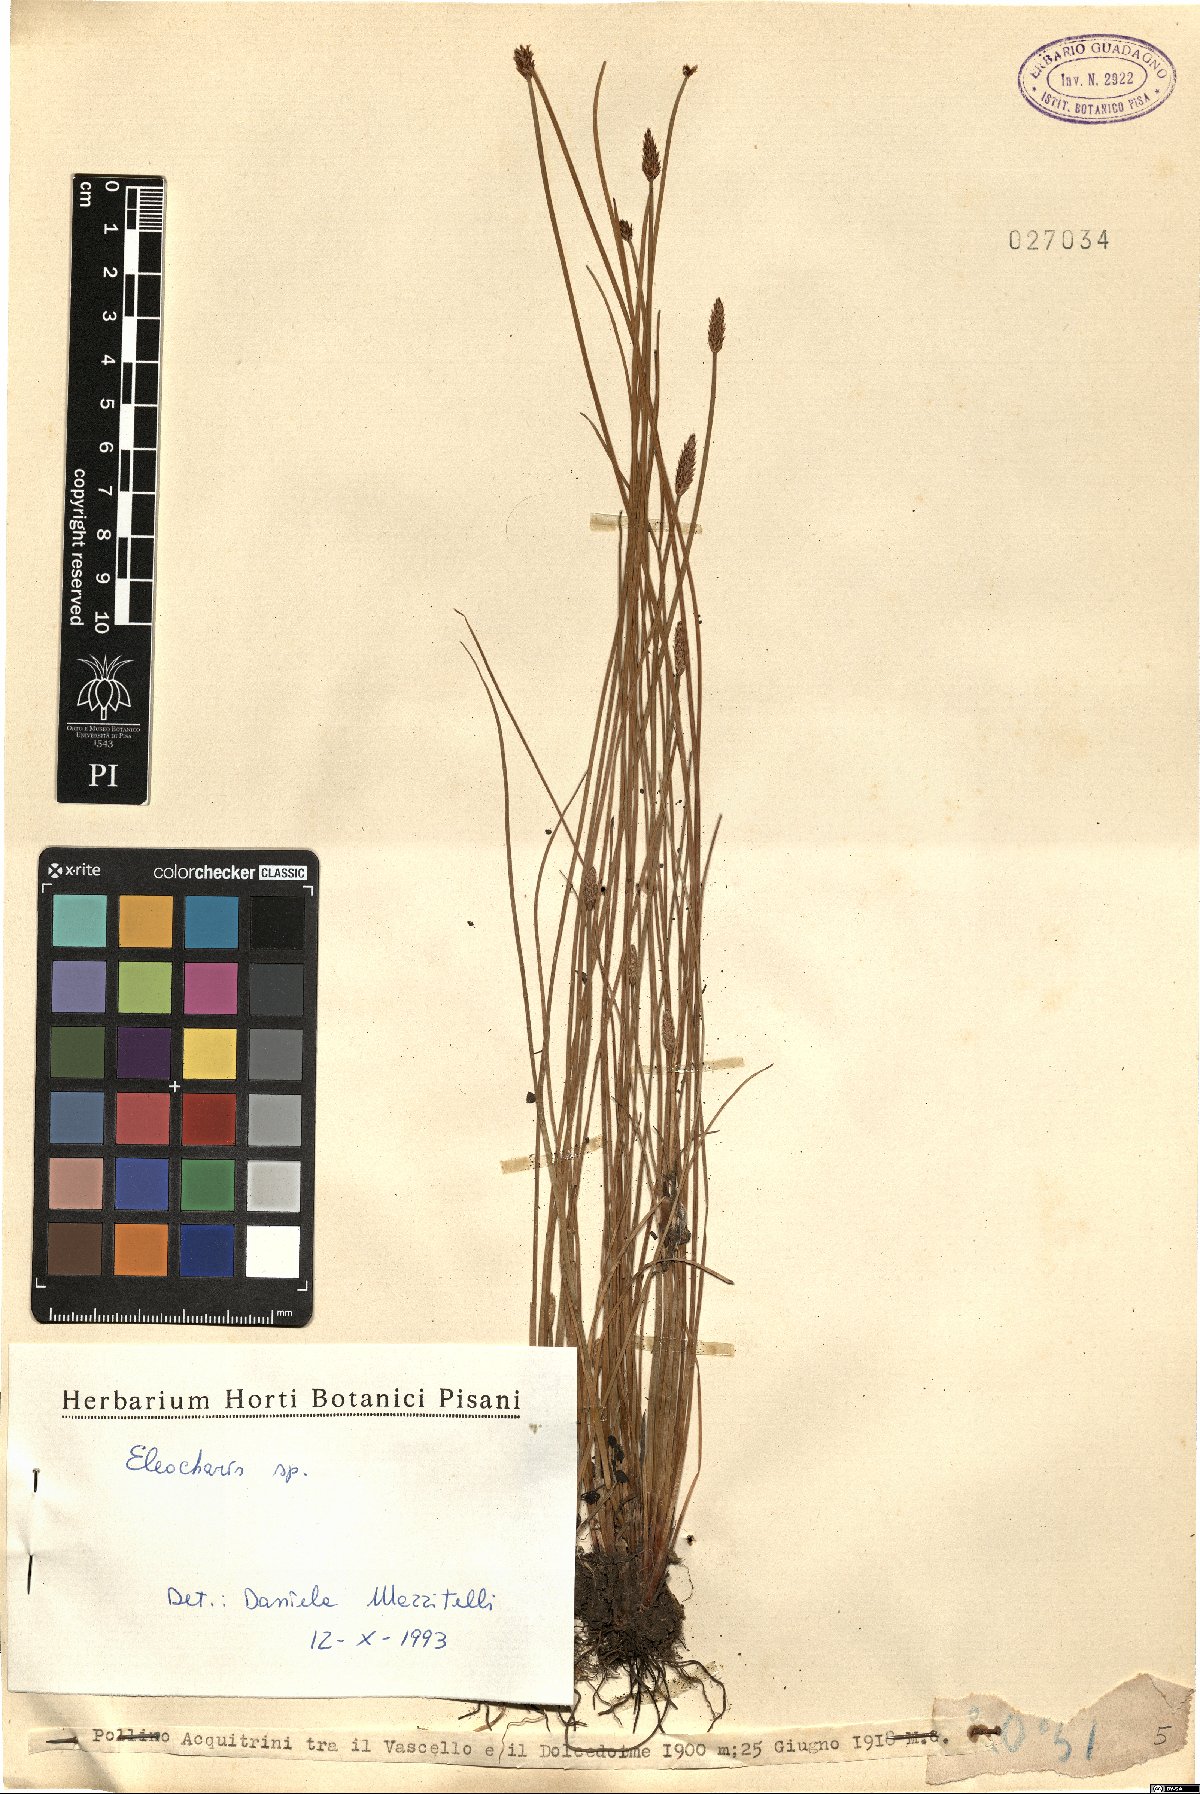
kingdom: Plantae
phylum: Tracheophyta
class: Liliopsida
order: Poales
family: Cyperaceae
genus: Eleocharis
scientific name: Eleocharis
